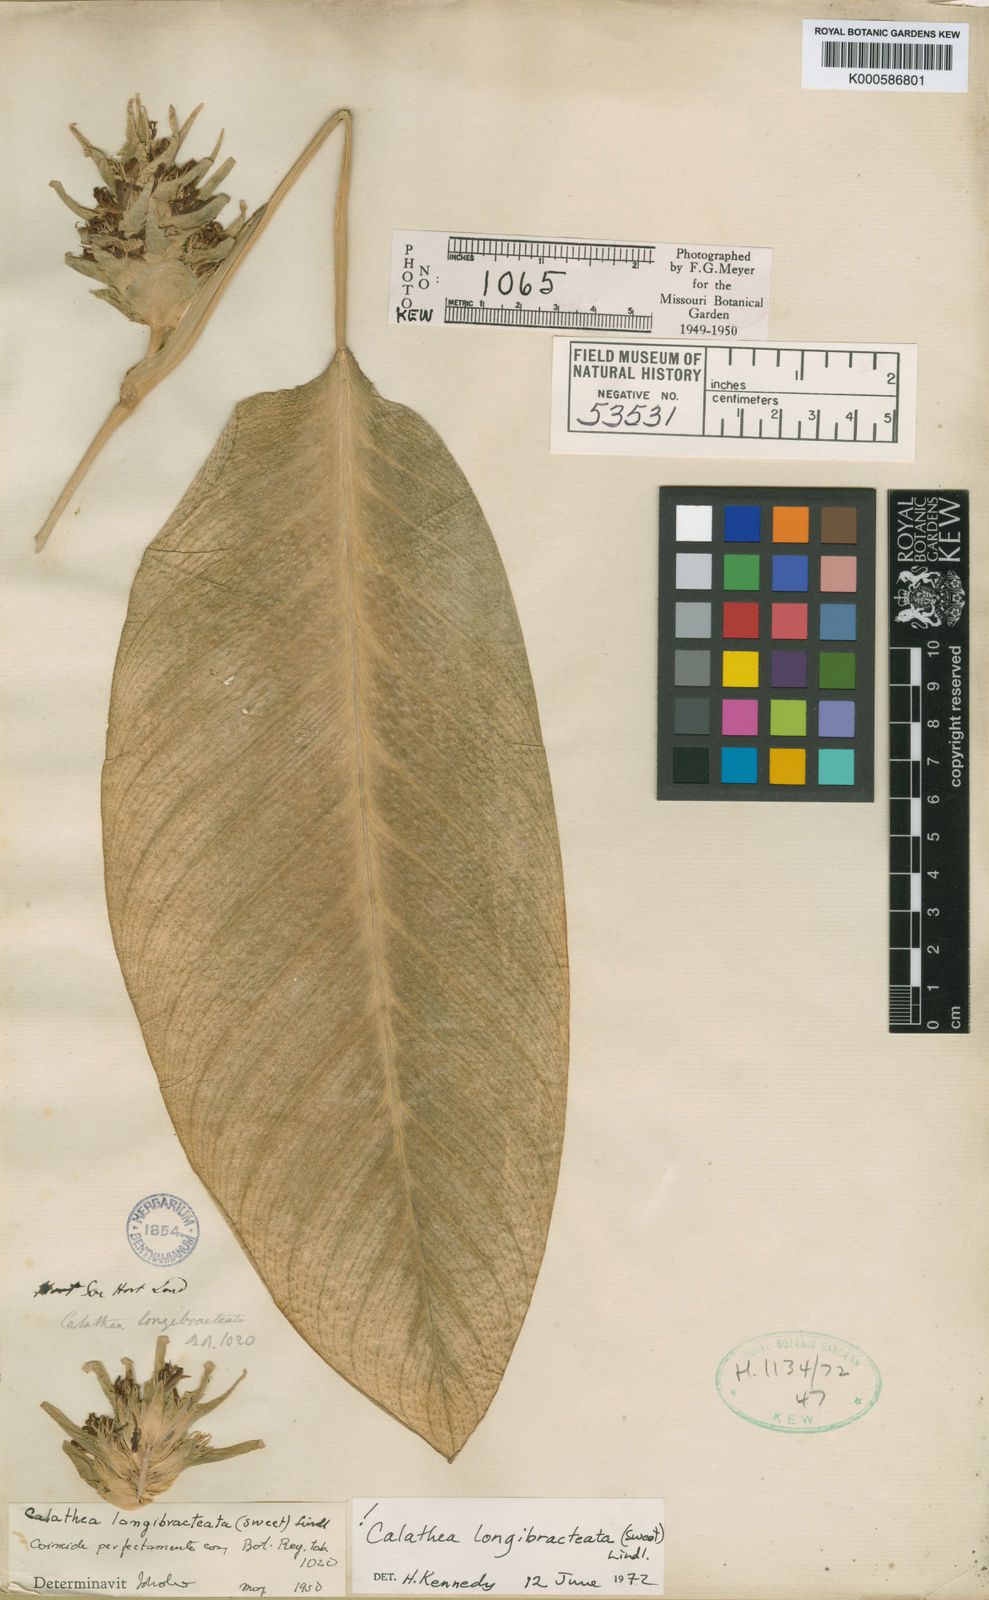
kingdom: Plantae
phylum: Tracheophyta
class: Liliopsida
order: Zingiberales
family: Marantaceae
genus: Goeppertia
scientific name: Goeppertia longibracteata
